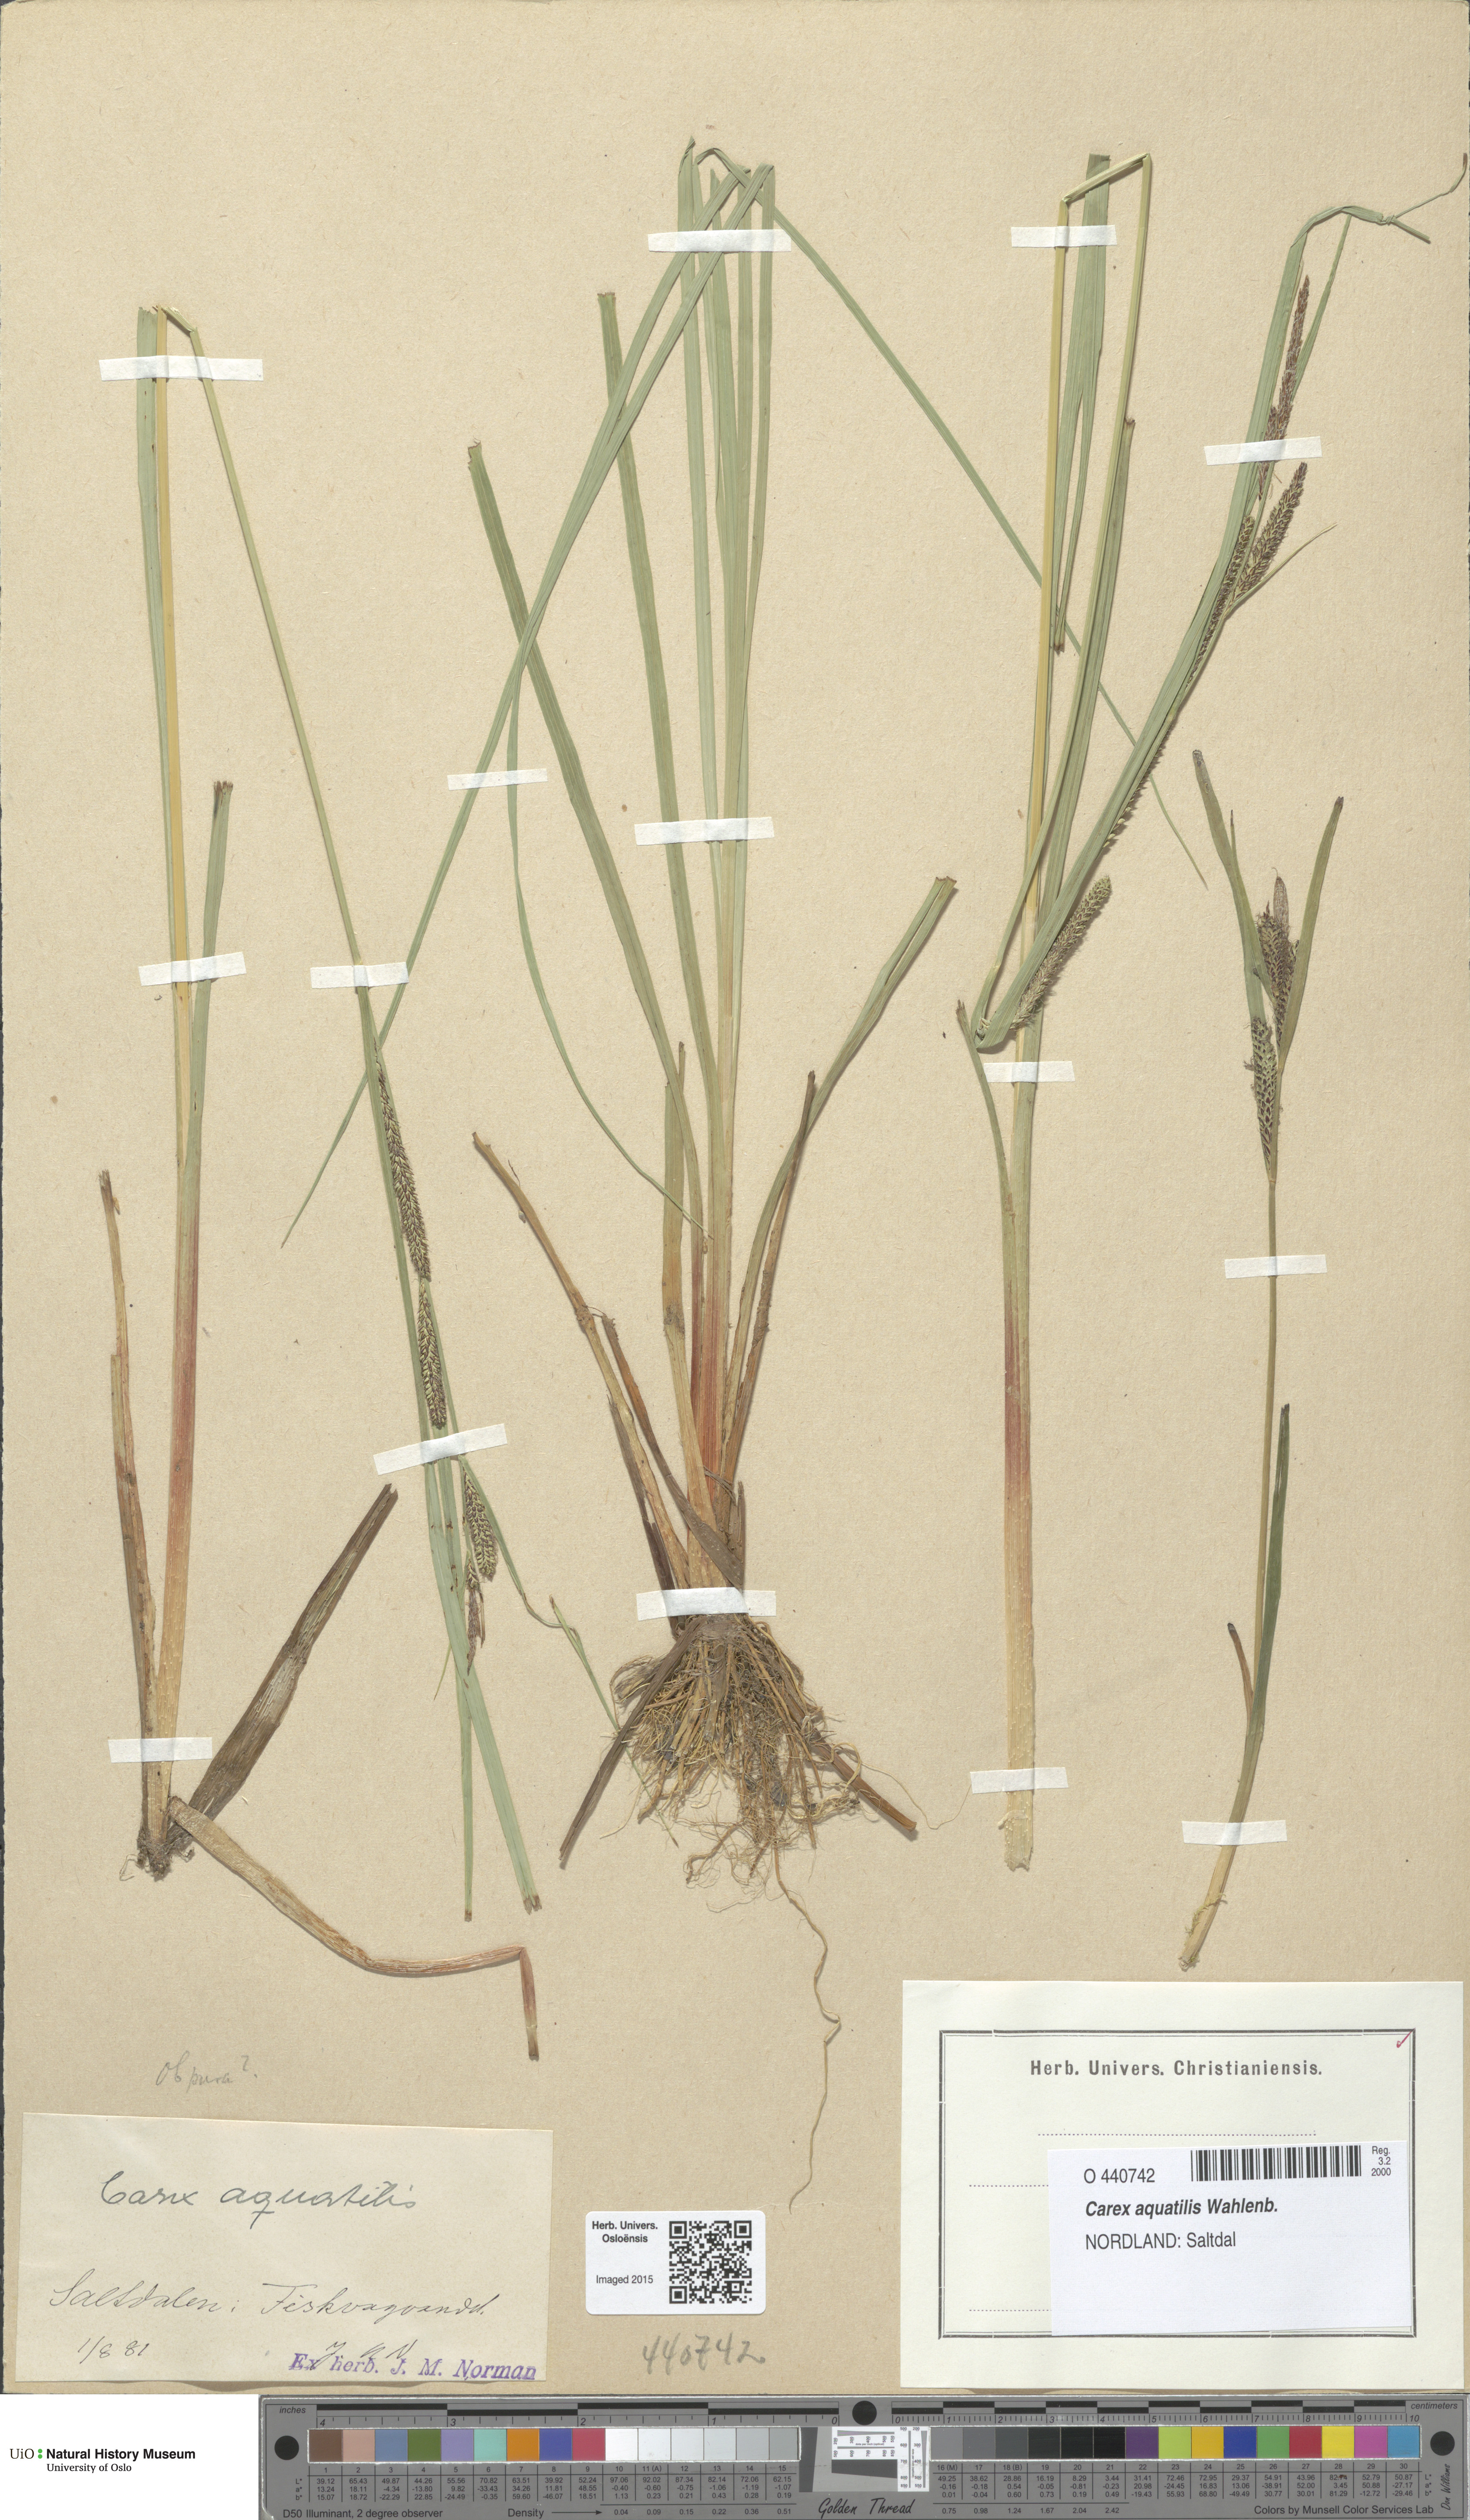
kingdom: Plantae
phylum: Tracheophyta
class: Liliopsida
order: Poales
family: Cyperaceae
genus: Carex
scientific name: Carex aquatilis
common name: Water sedge
